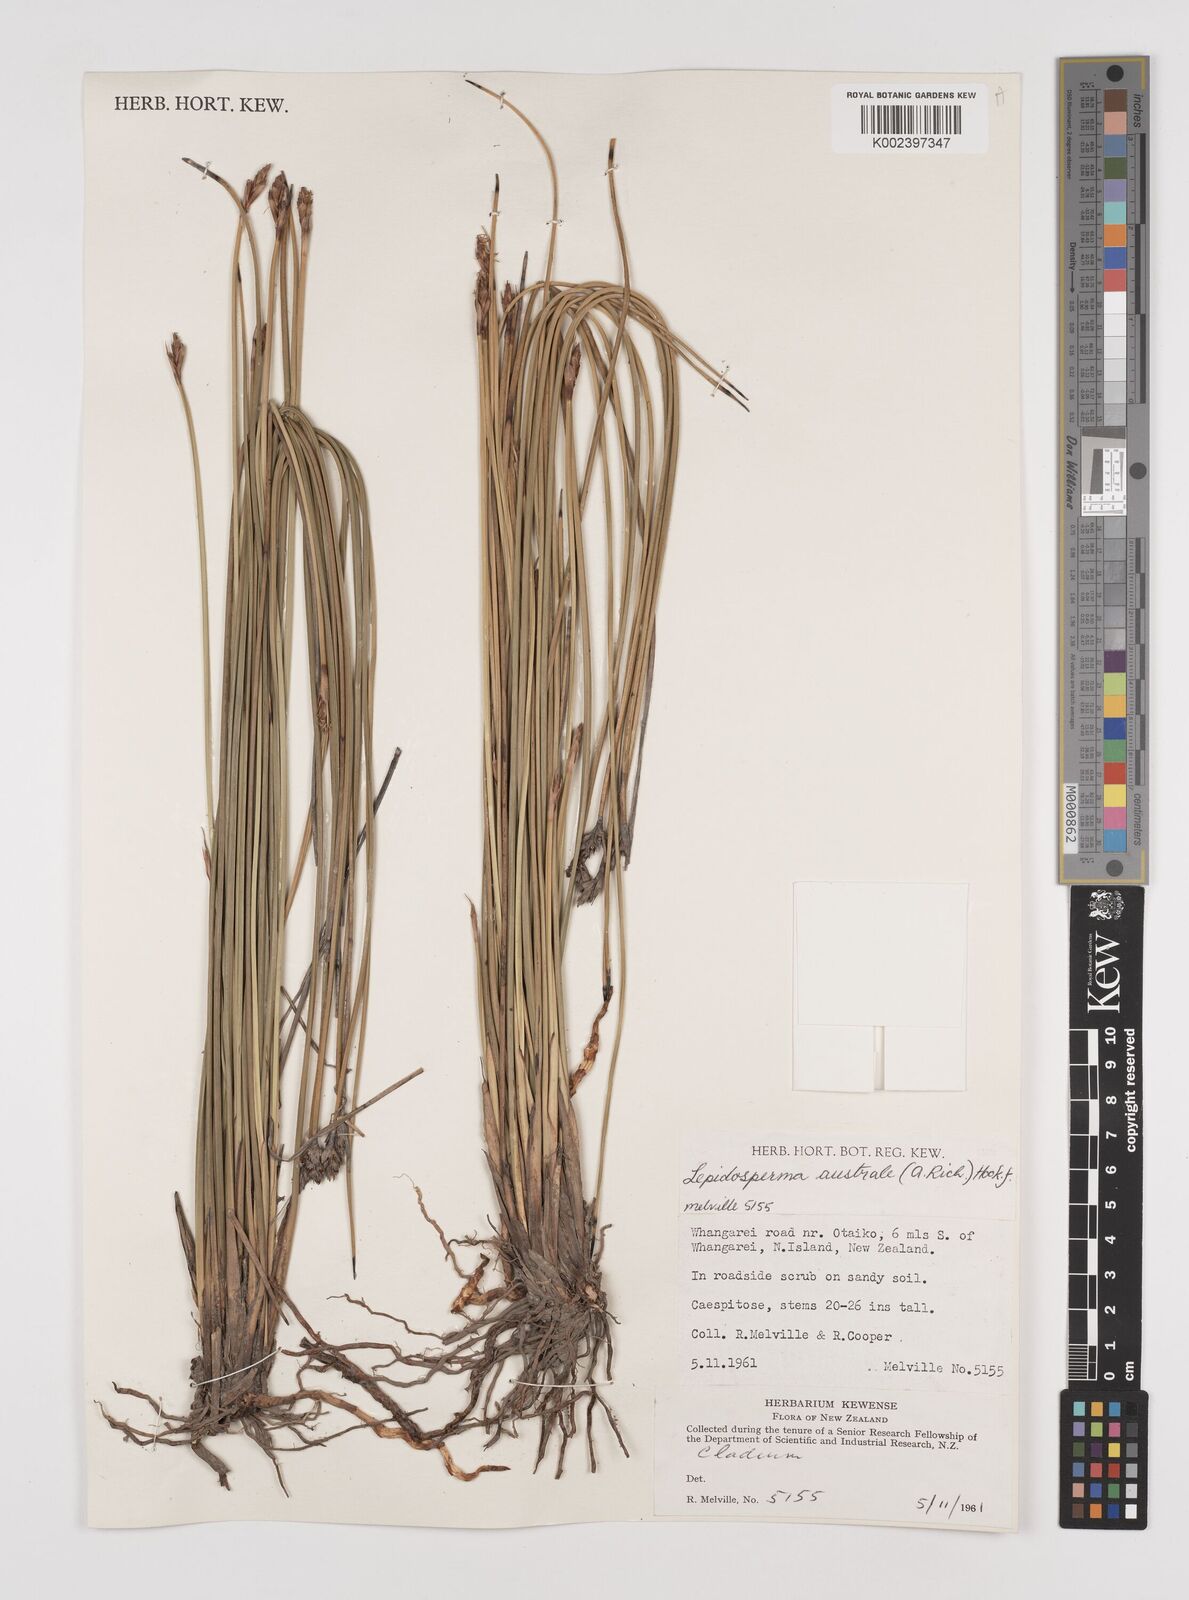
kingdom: Plantae
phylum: Tracheophyta
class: Liliopsida
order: Poales
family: Cyperaceae
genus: Lepidosperma
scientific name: Lepidosperma australe
